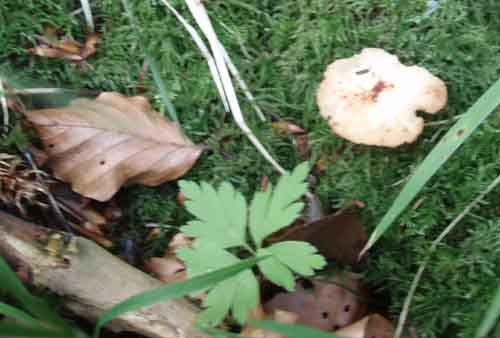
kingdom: Fungi
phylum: Basidiomycota
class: Agaricomycetes
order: Polyporales
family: Polyporaceae
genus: Lentinus
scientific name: Lentinus substrictus
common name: forårs-stilkporesvamp
